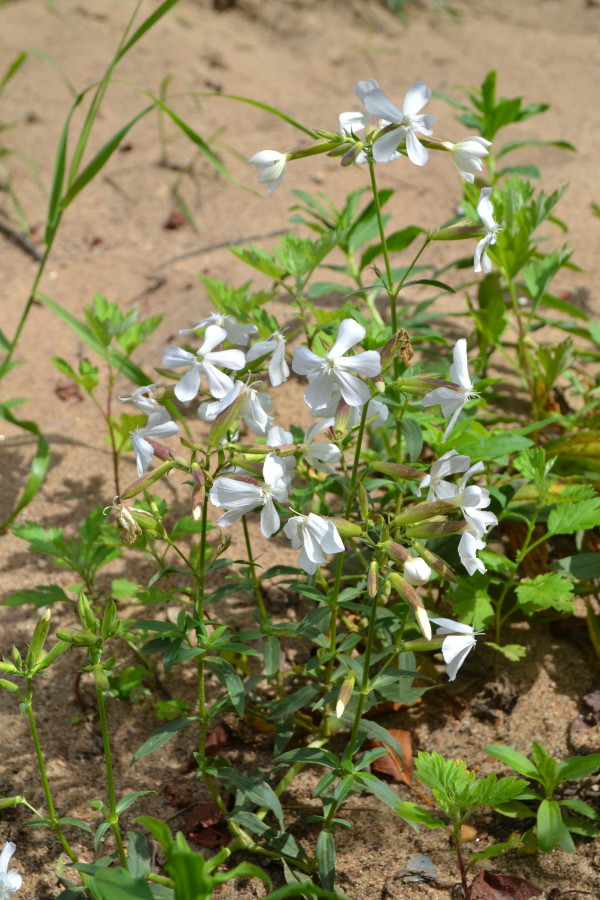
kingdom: Plantae
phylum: Tracheophyta
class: Magnoliopsida
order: Caryophyllales
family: Caryophyllaceae
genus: Saponaria
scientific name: Saponaria officinalis
